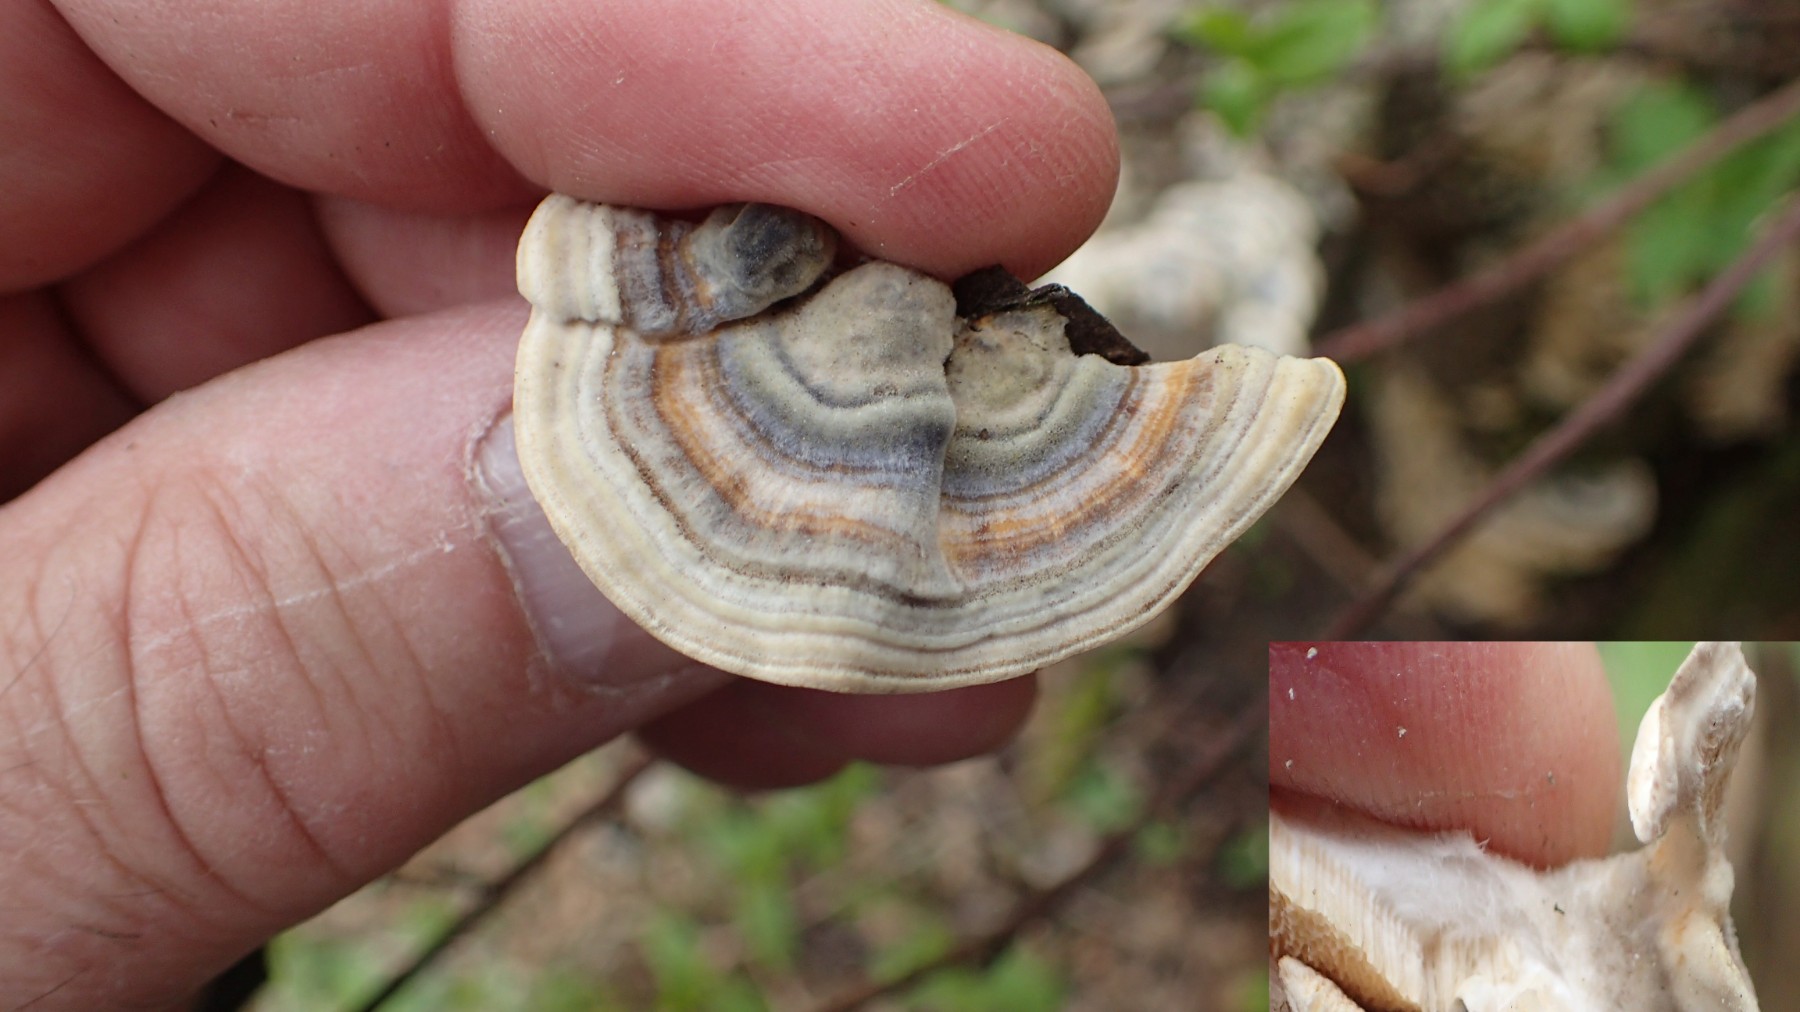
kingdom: Fungi
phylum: Basidiomycota
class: Agaricomycetes
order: Polyporales
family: Polyporaceae
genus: Trametes
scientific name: Trametes ochracea
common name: bæltet læderporesvamp
